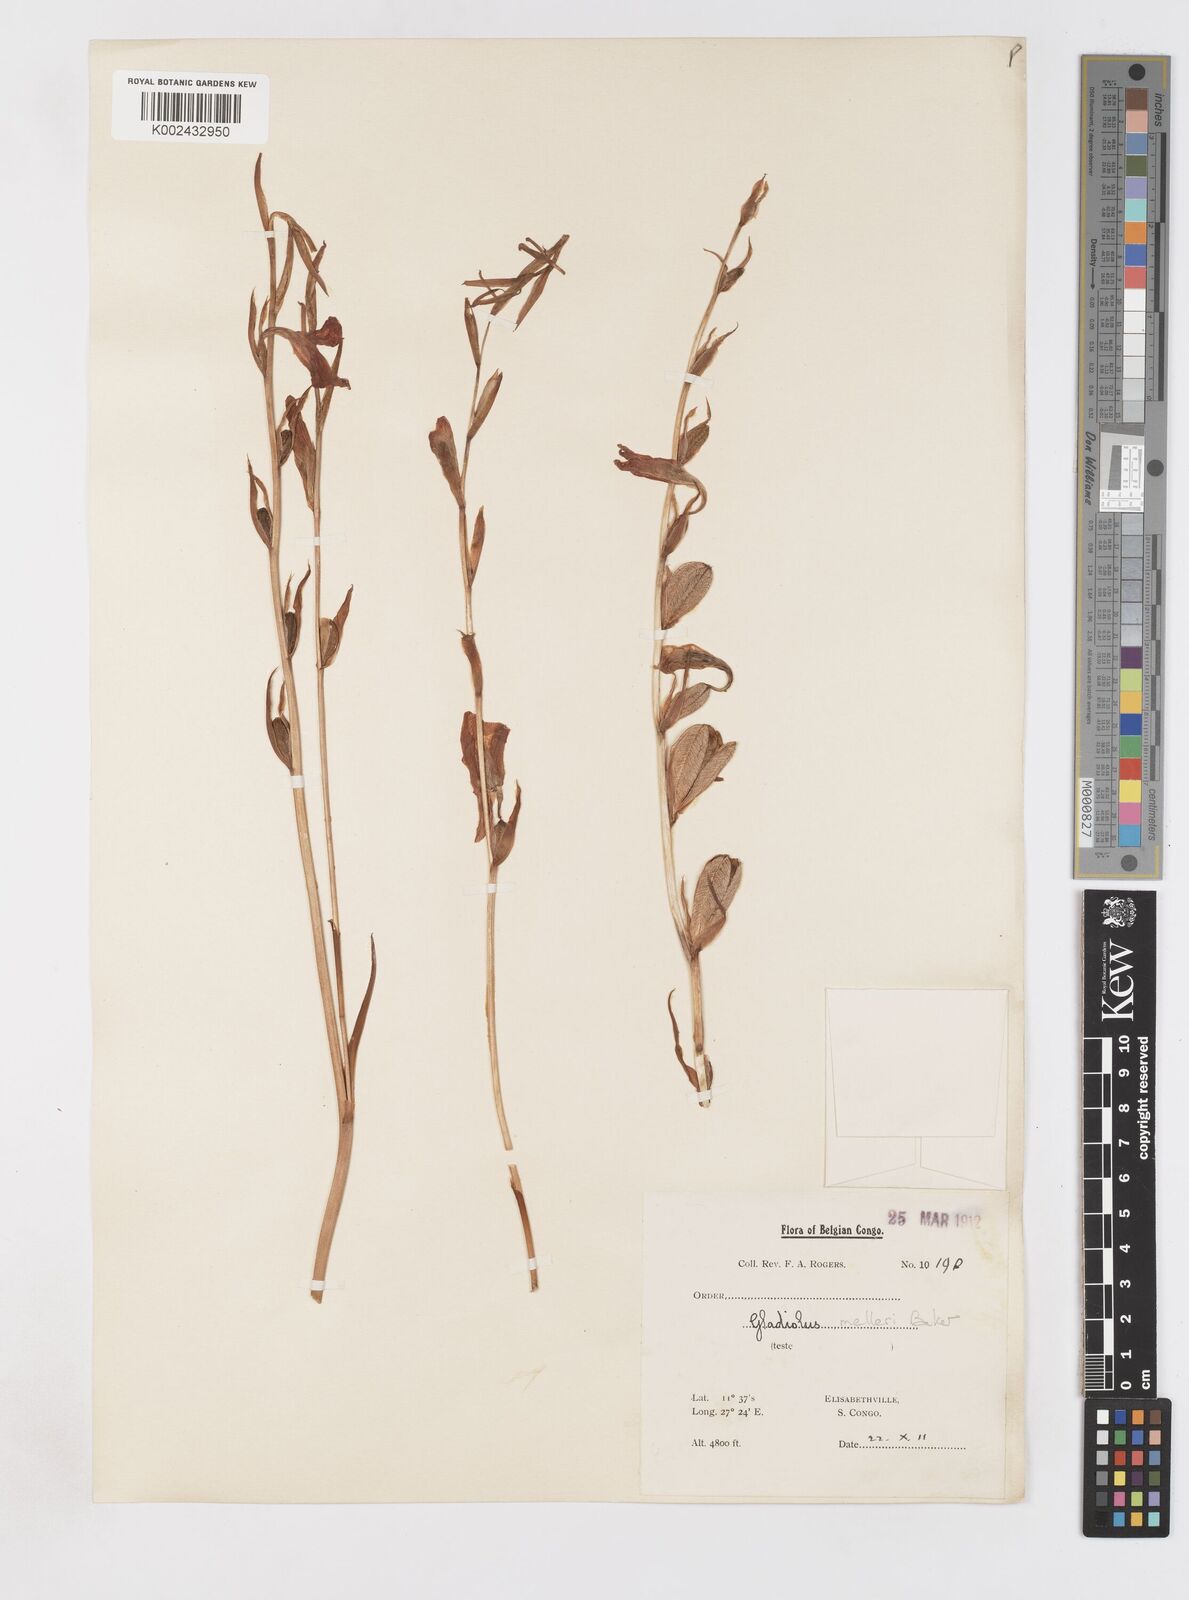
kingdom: Plantae
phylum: Tracheophyta
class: Liliopsida
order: Asparagales
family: Iridaceae
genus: Gladiolus
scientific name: Gladiolus melleri
